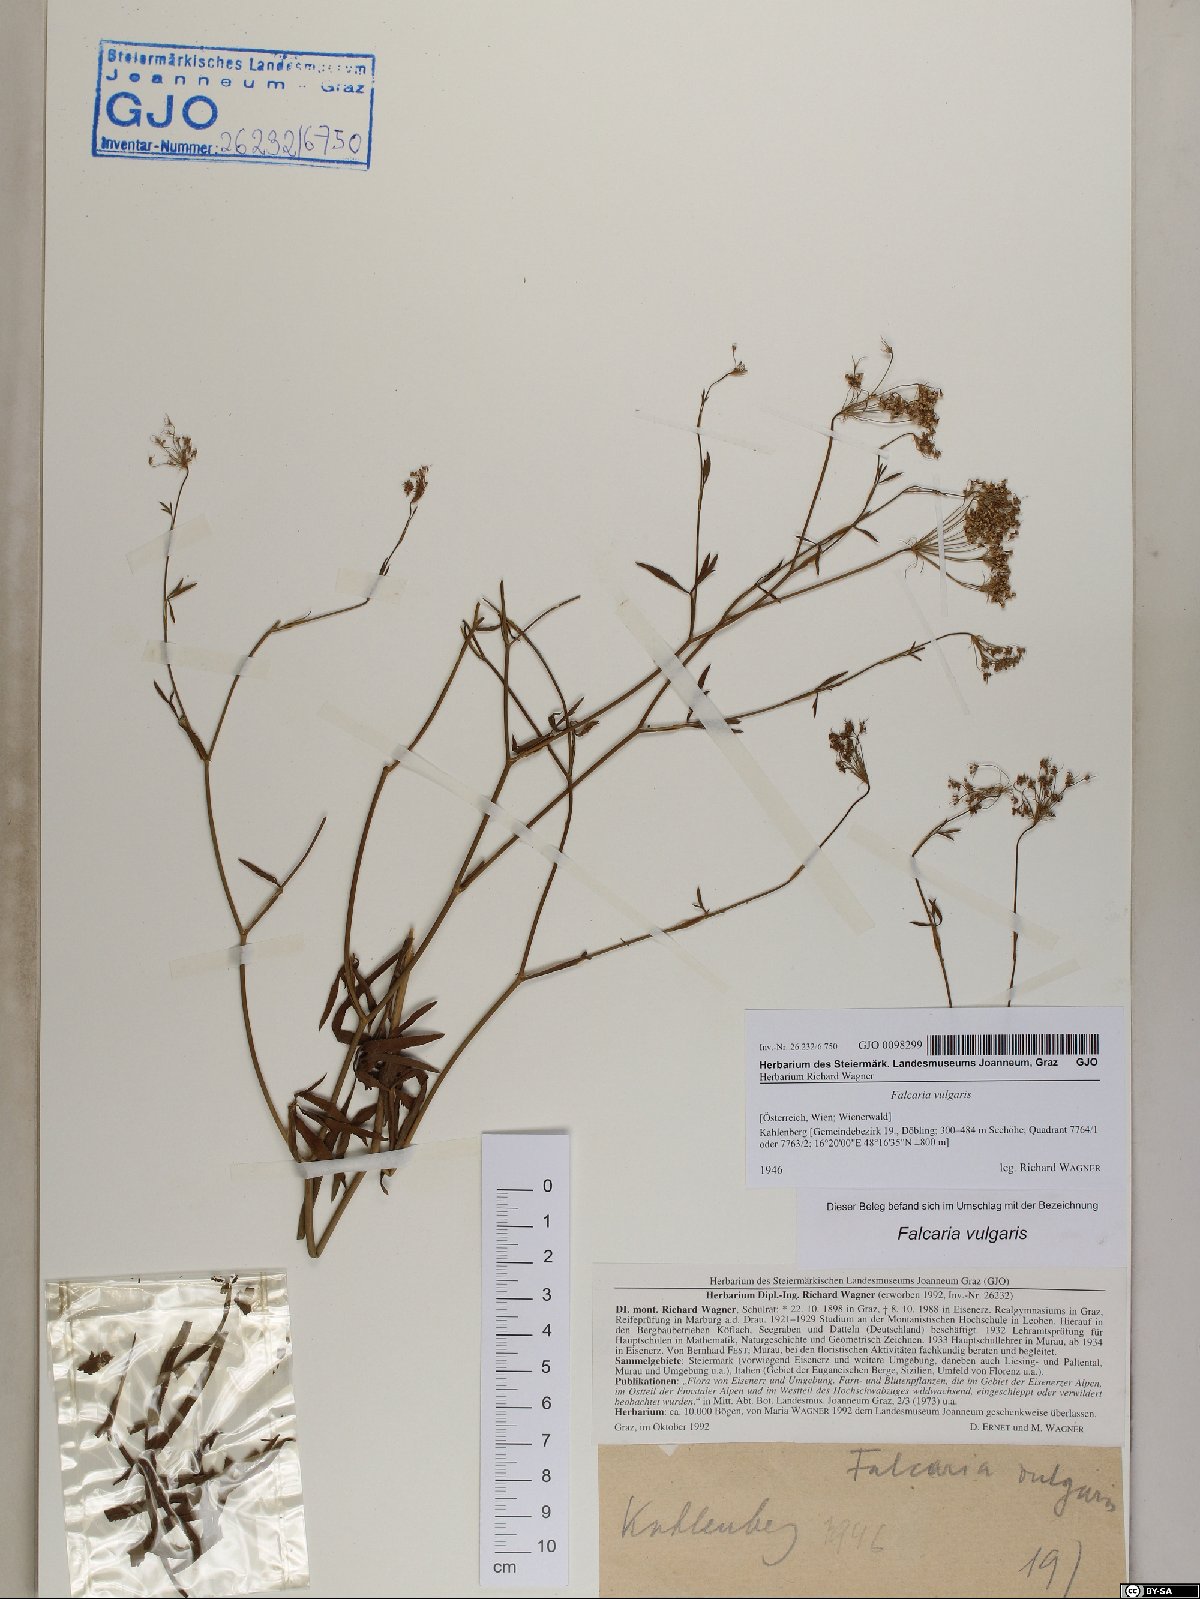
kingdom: Plantae
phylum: Tracheophyta
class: Magnoliopsida
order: Apiales
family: Apiaceae
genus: Falcaria
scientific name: Falcaria vulgaris
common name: Longleaf
